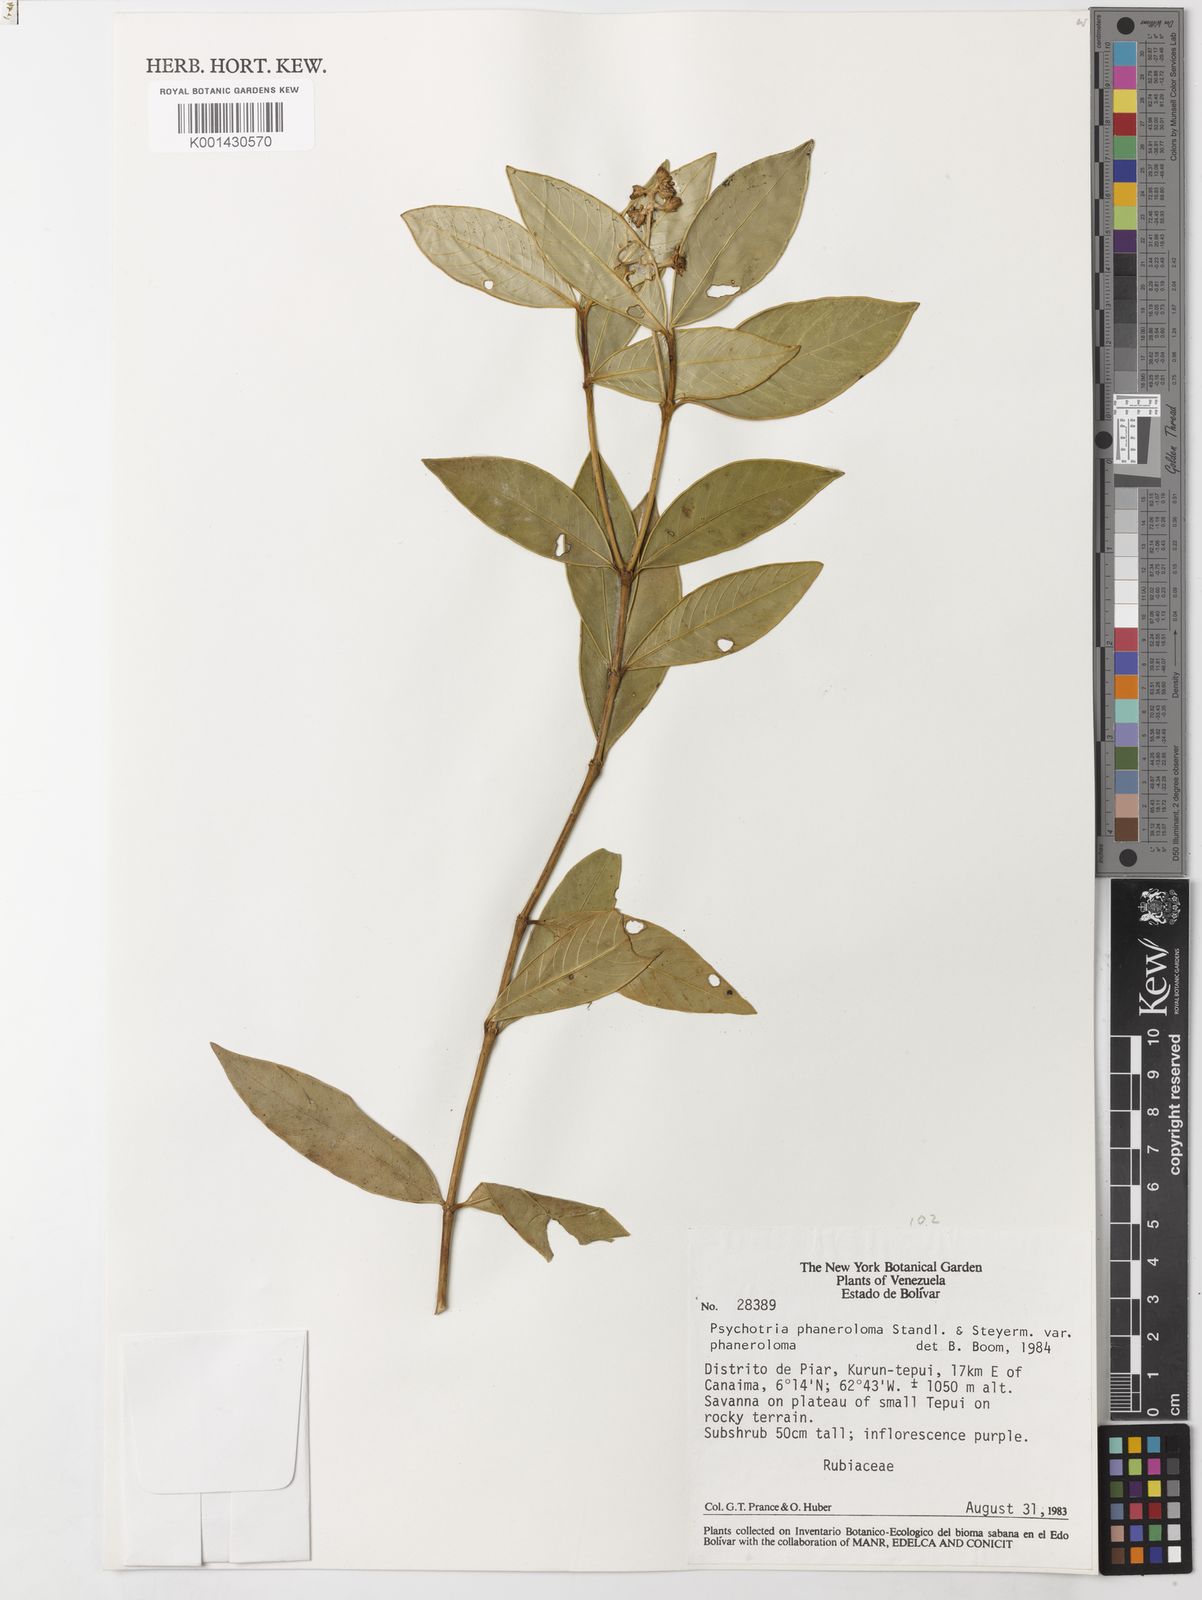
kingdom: Plantae
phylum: Tracheophyta
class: Magnoliopsida
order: Gentianales
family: Rubiaceae
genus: Palicourea
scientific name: Palicourea phaneroloma
